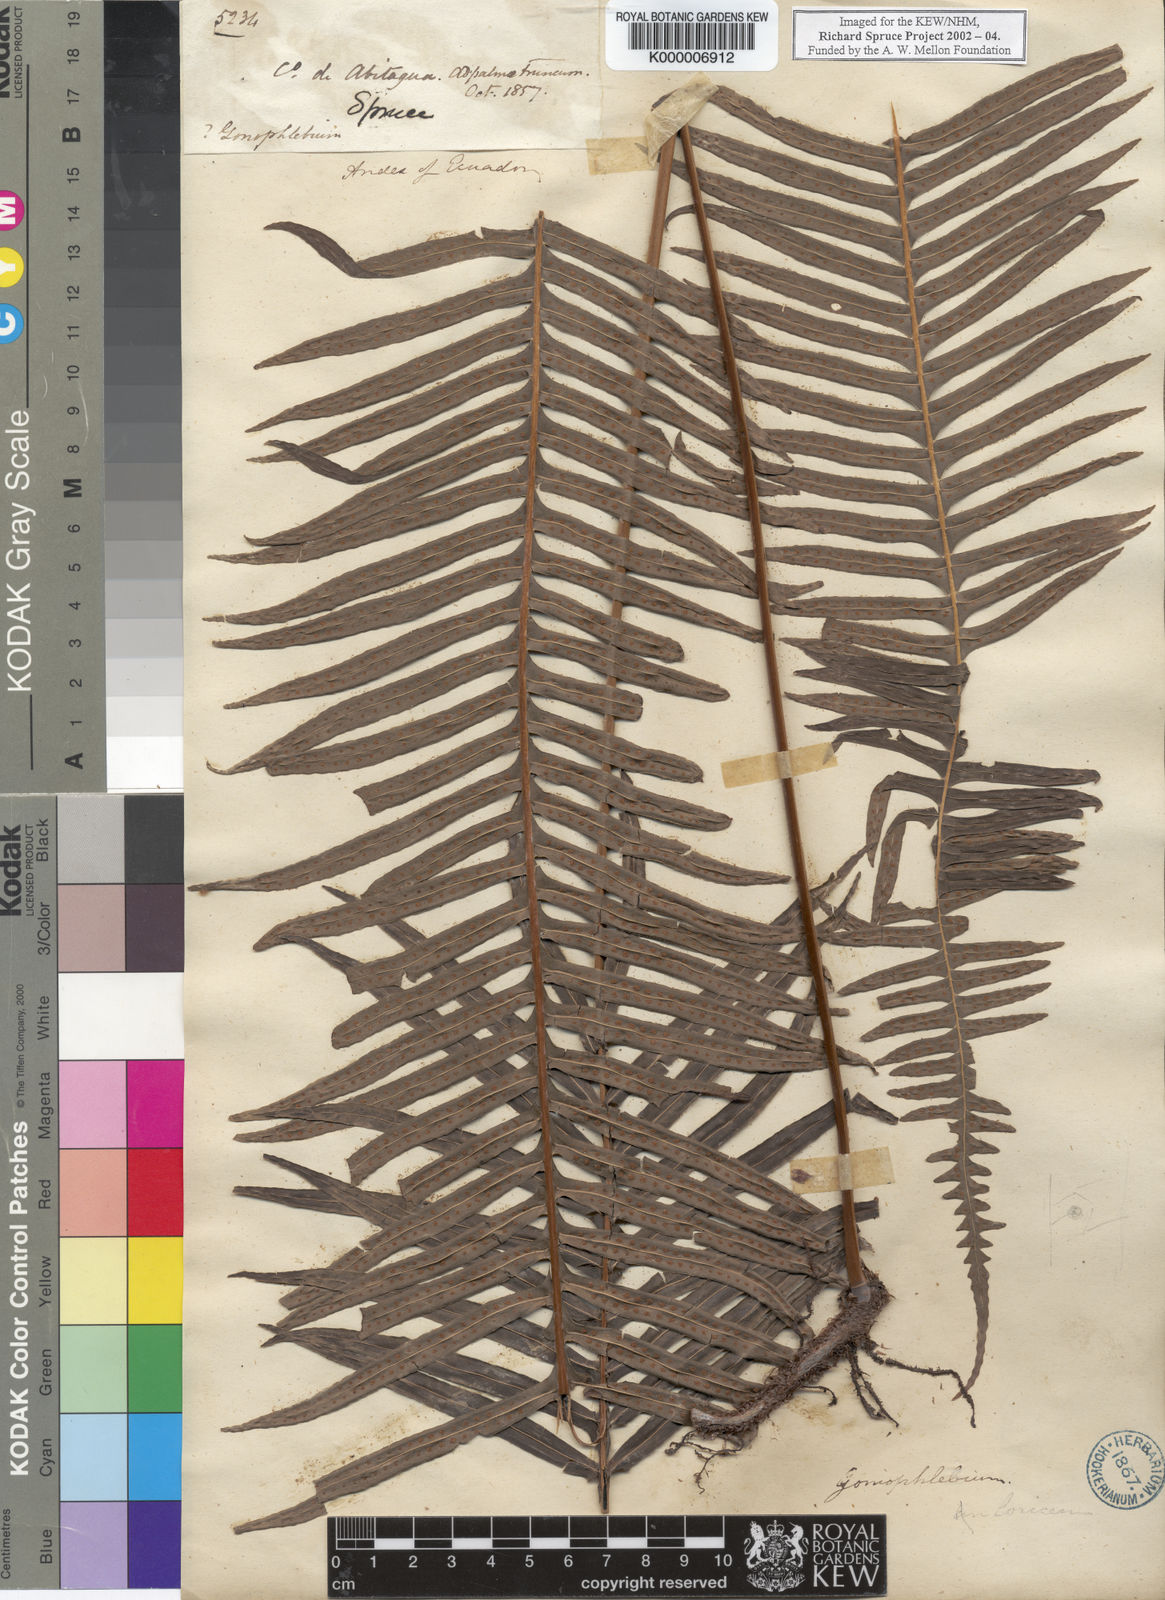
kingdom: Plantae
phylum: Tracheophyta
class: Polypodiopsida
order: Polypodiales
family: Polypodiaceae
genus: Polypodium
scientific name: Polypodium
